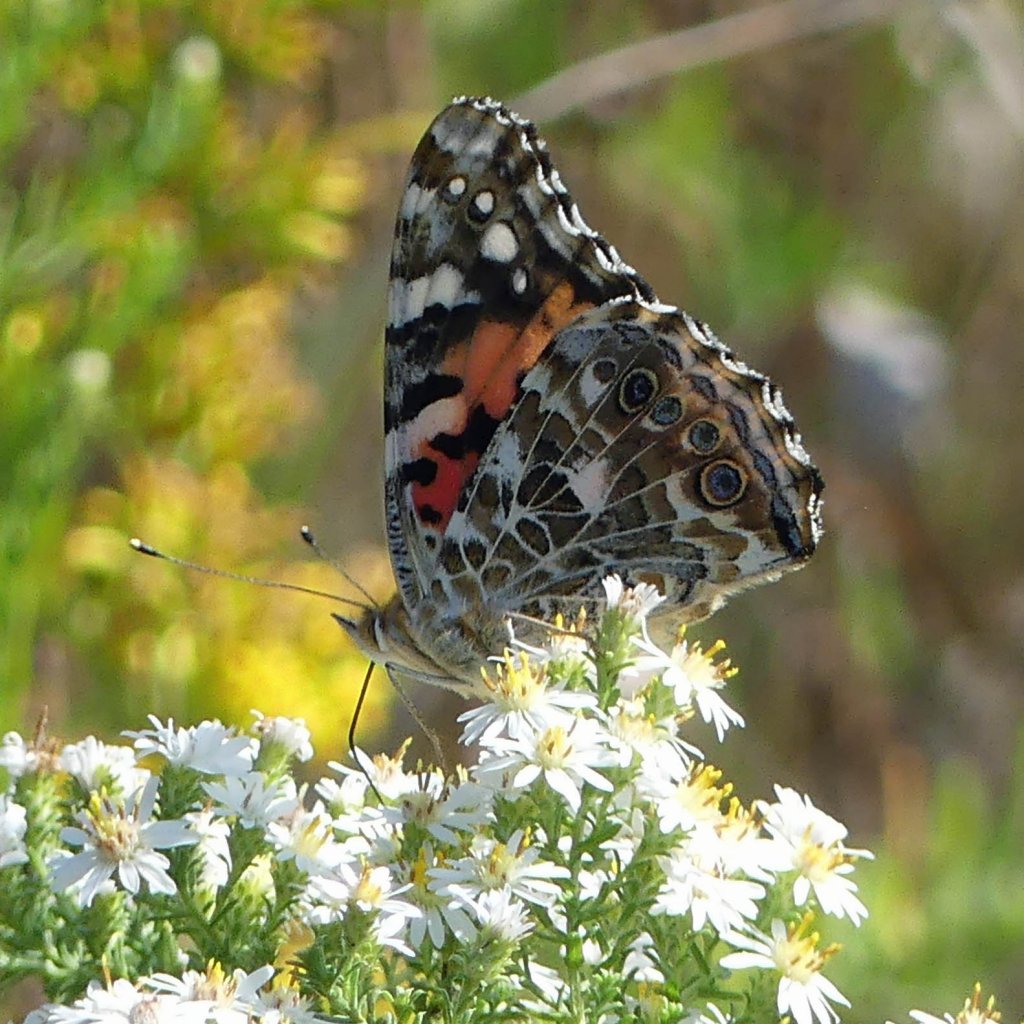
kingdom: Animalia
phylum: Arthropoda
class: Insecta
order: Lepidoptera
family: Nymphalidae
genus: Vanessa
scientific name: Vanessa cardui
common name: Painted Lady
